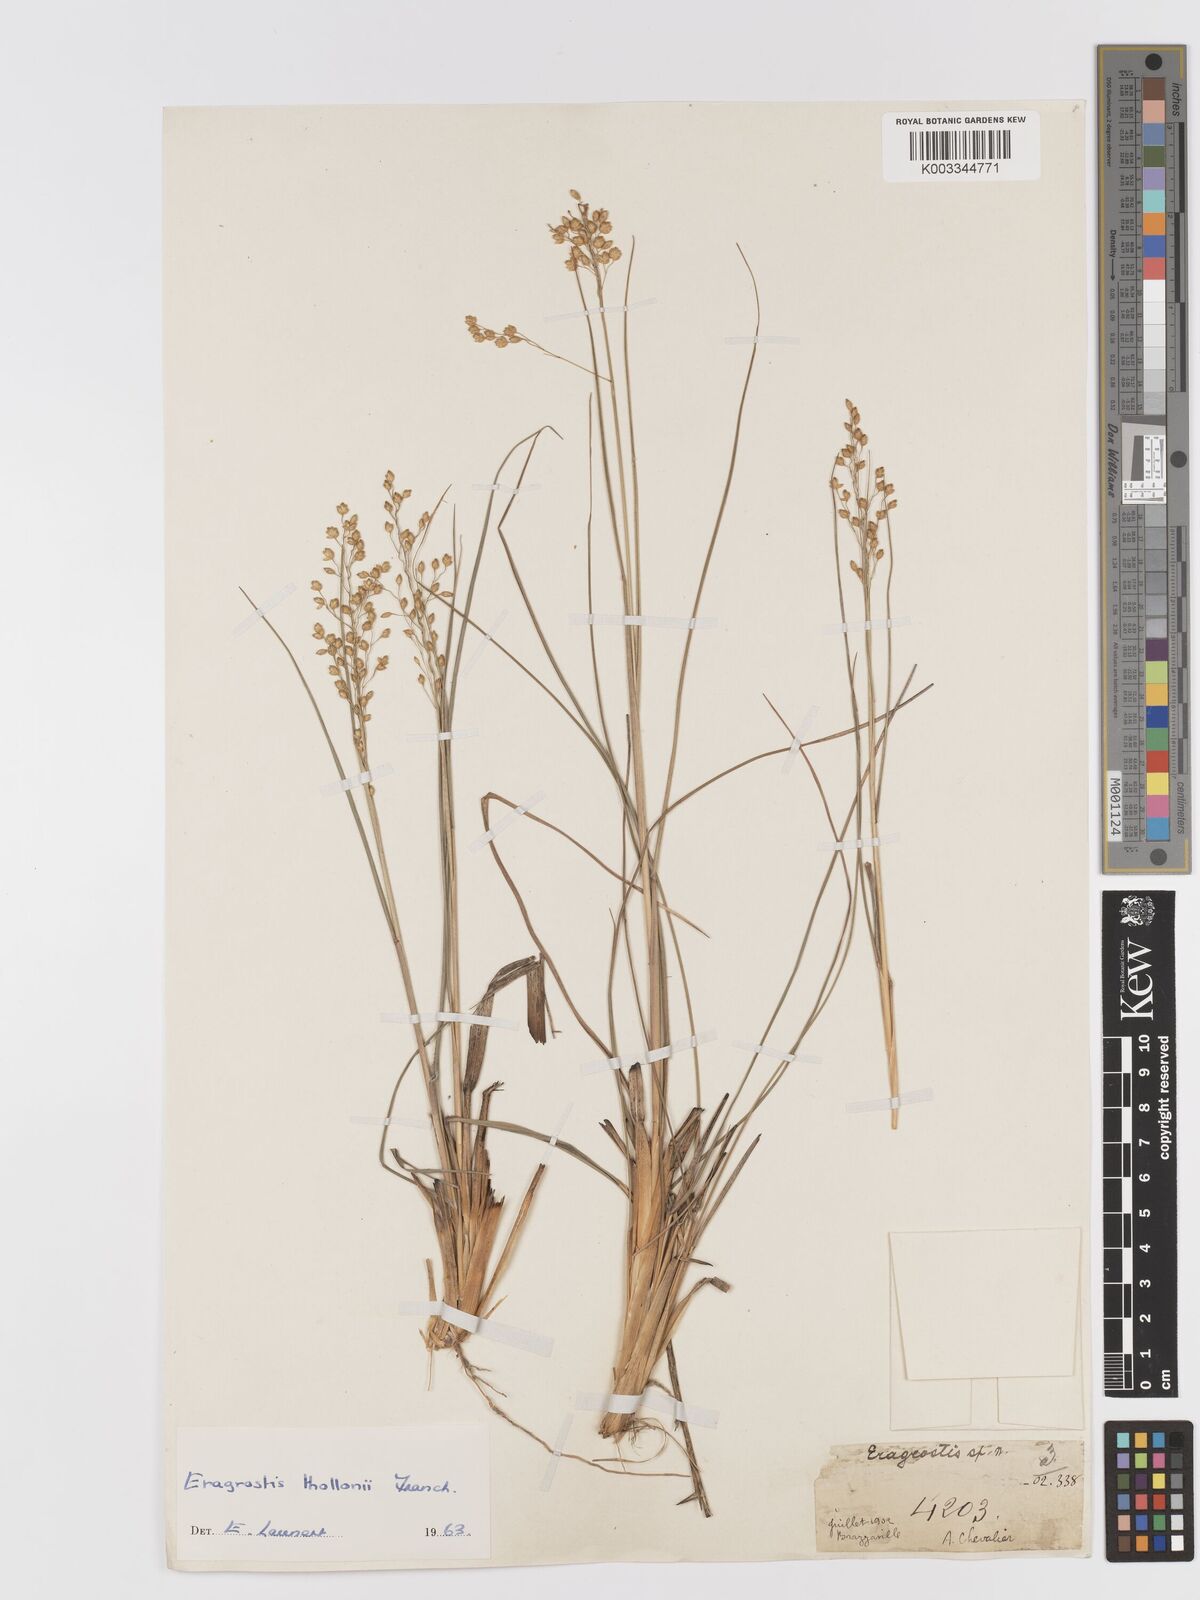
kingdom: Plantae
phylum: Tracheophyta
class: Liliopsida
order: Poales
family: Poaceae
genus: Eragrostis
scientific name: Eragrostis thollonii
